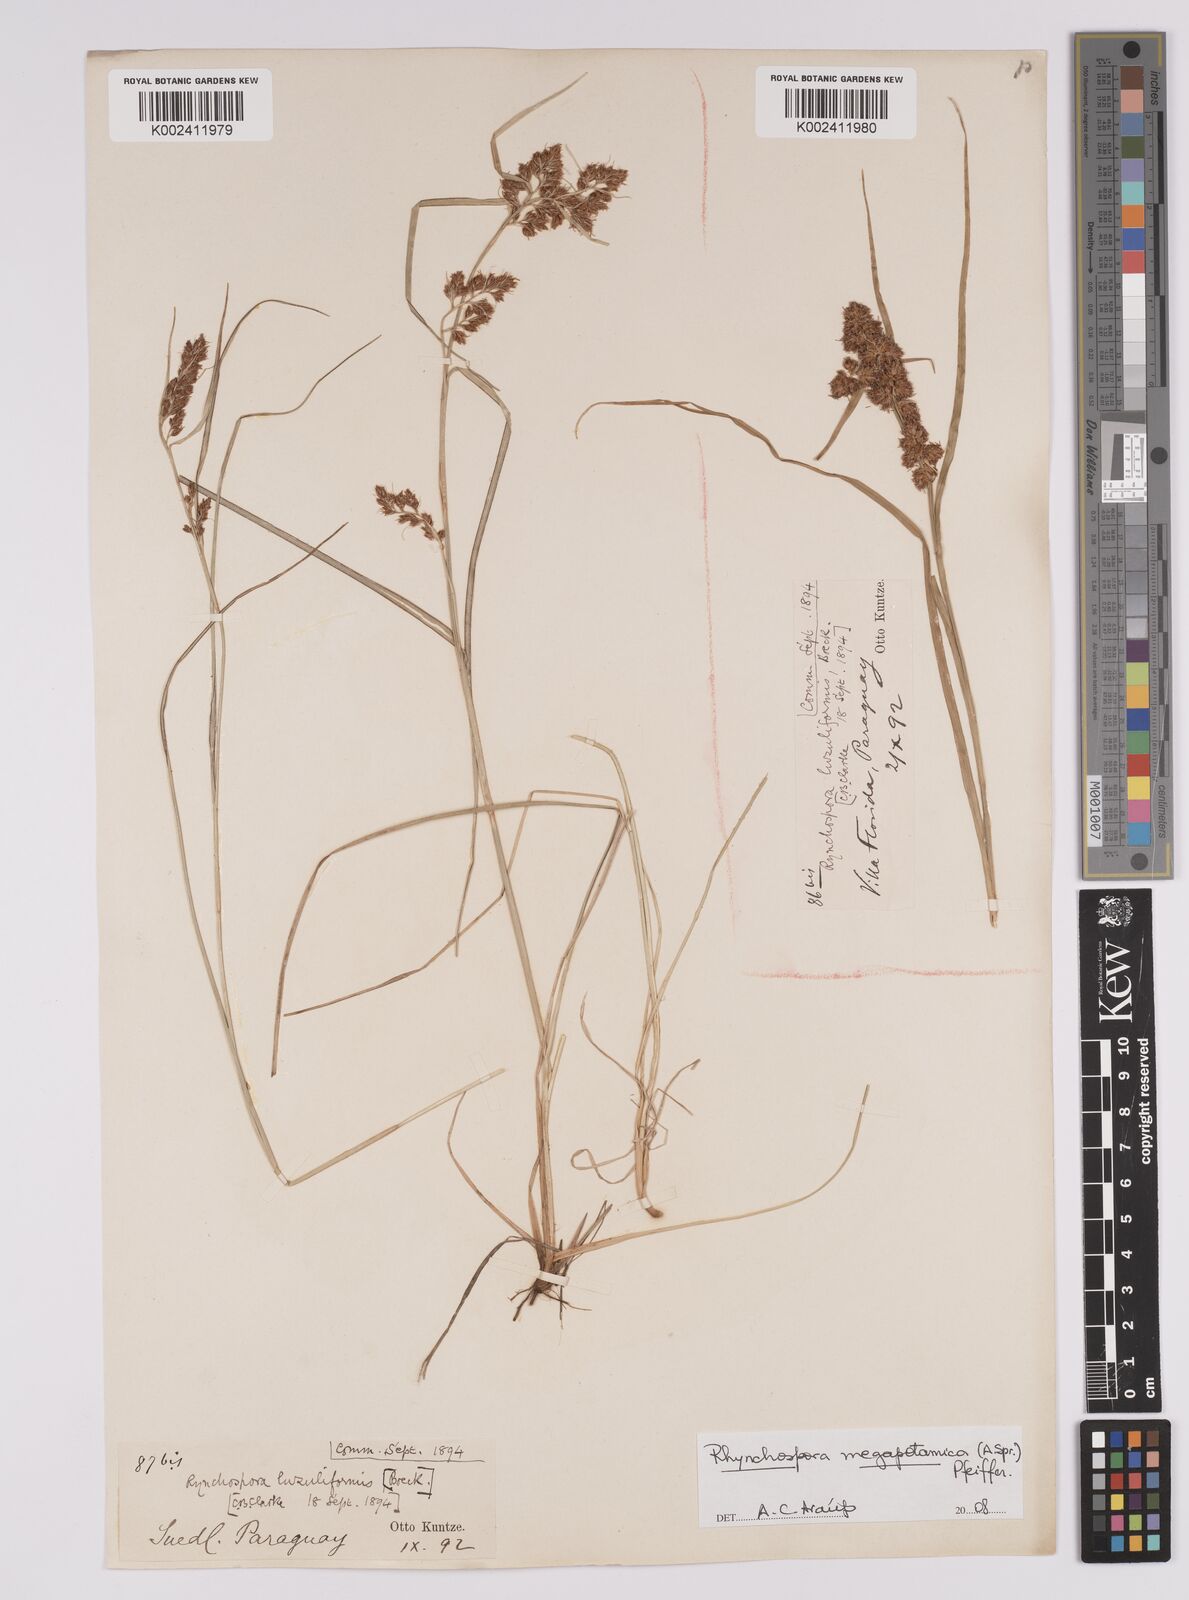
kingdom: Plantae
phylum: Tracheophyta
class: Liliopsida
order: Poales
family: Cyperaceae
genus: Rhynchospora
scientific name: Rhynchospora megalocarpa
